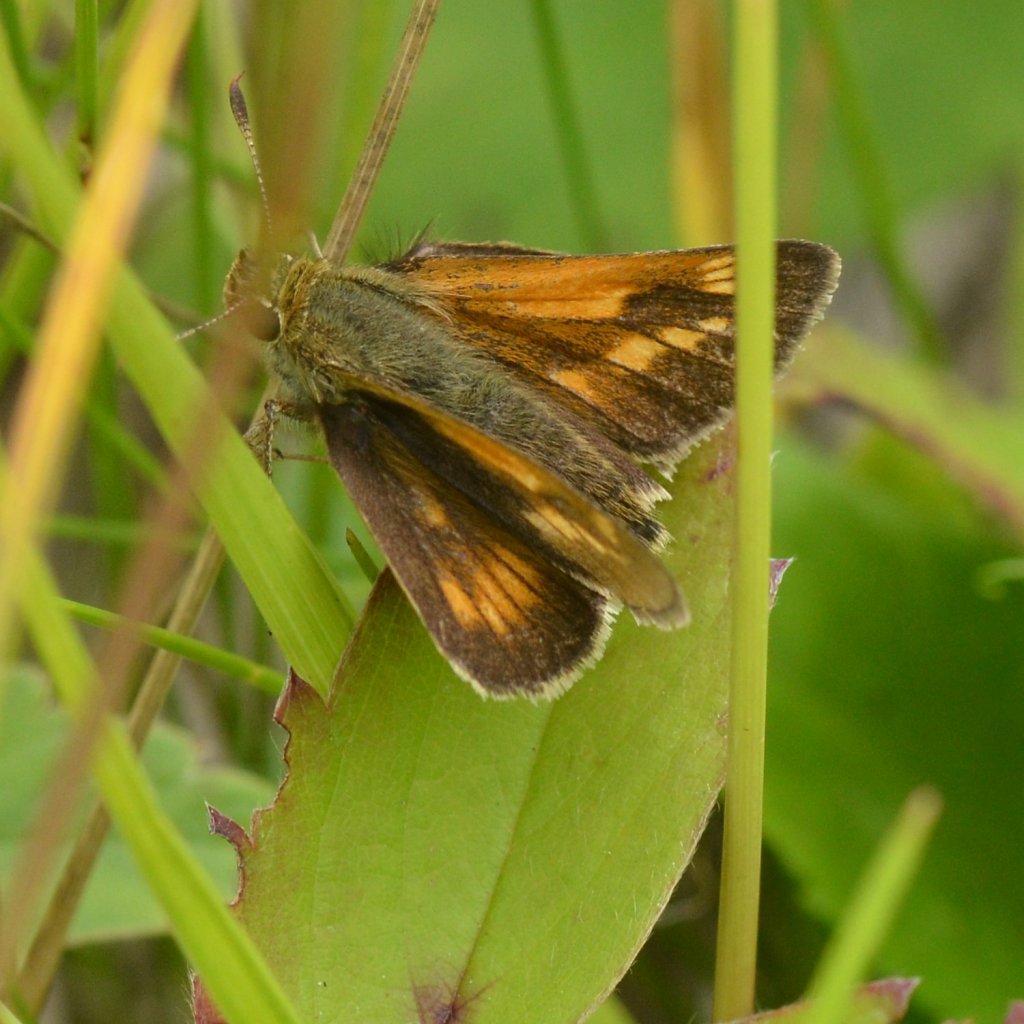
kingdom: Animalia
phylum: Arthropoda
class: Insecta
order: Lepidoptera
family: Hesperiidae
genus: Polites
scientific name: Polites
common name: Long Dash Skipper
